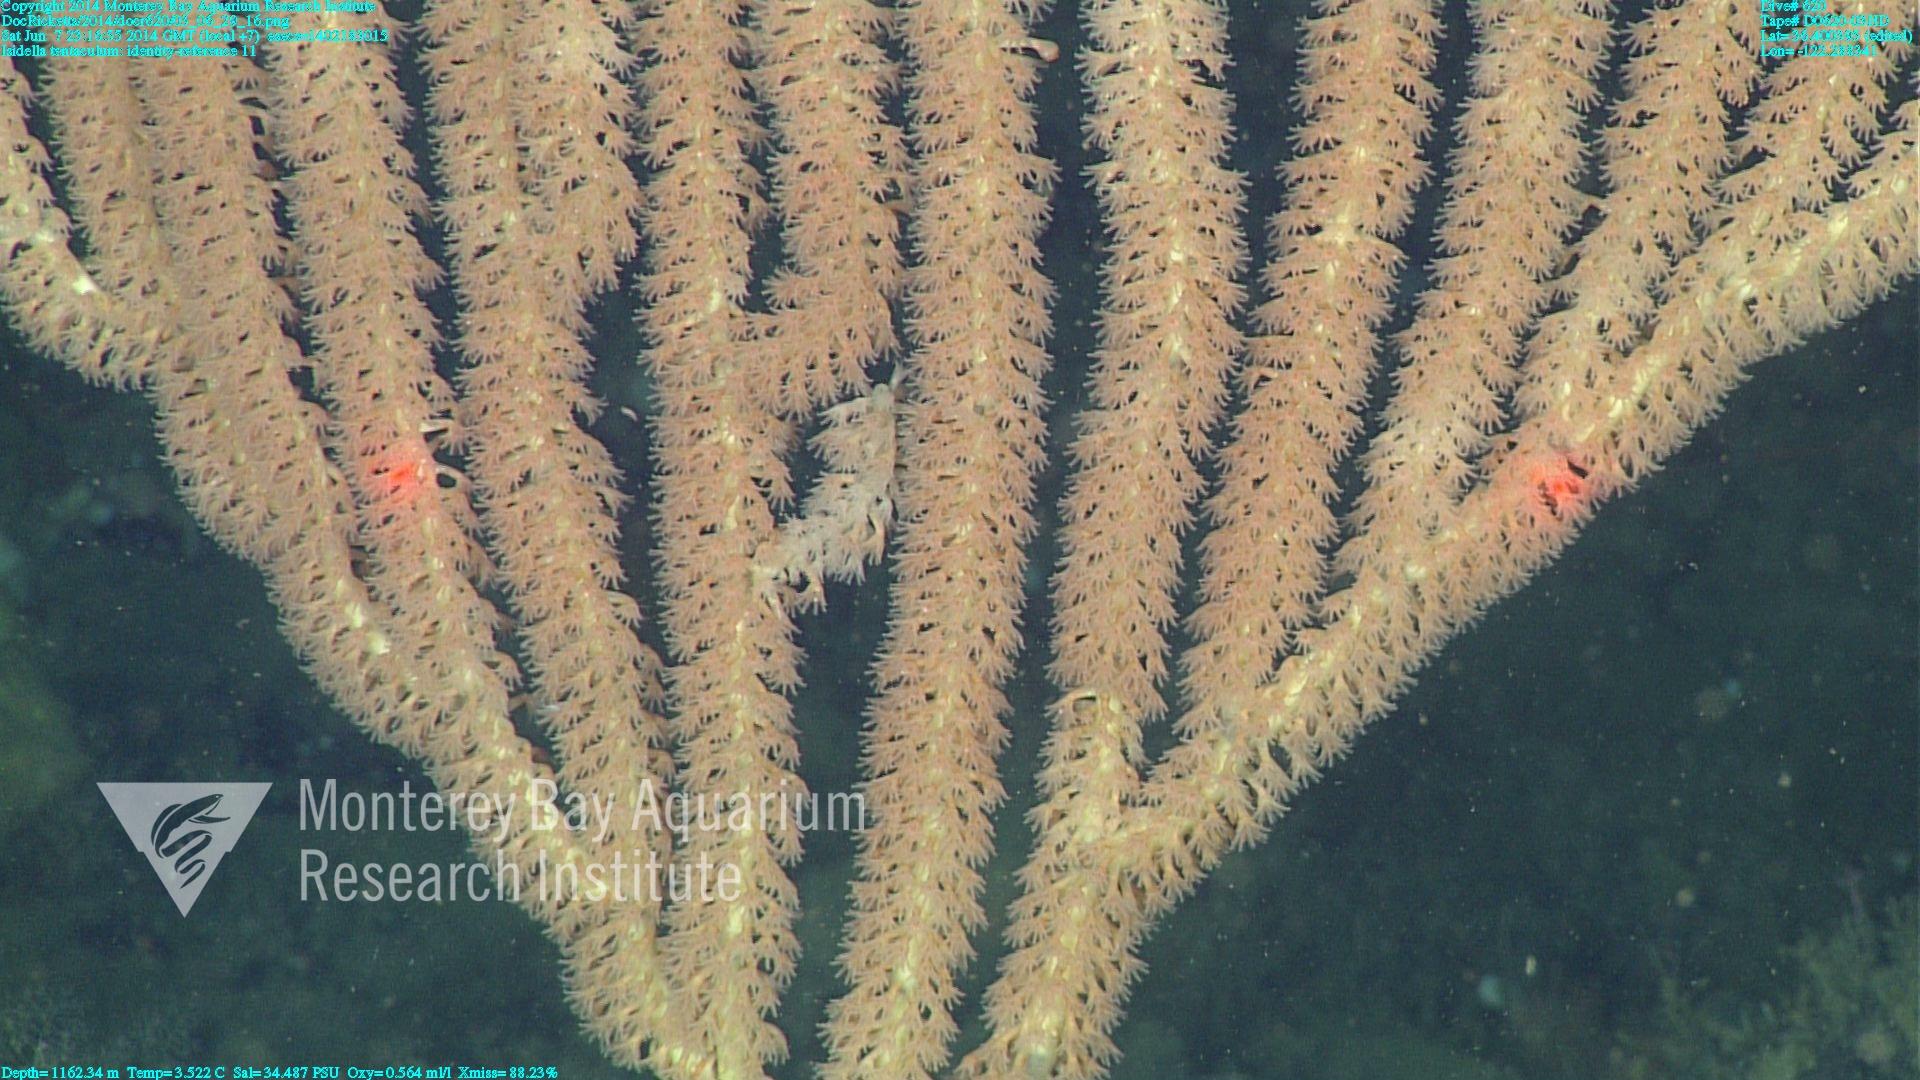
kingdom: Animalia
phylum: Cnidaria
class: Anthozoa
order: Scleralcyonacea
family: Keratoisididae
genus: Isidella
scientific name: Isidella tentaculum
